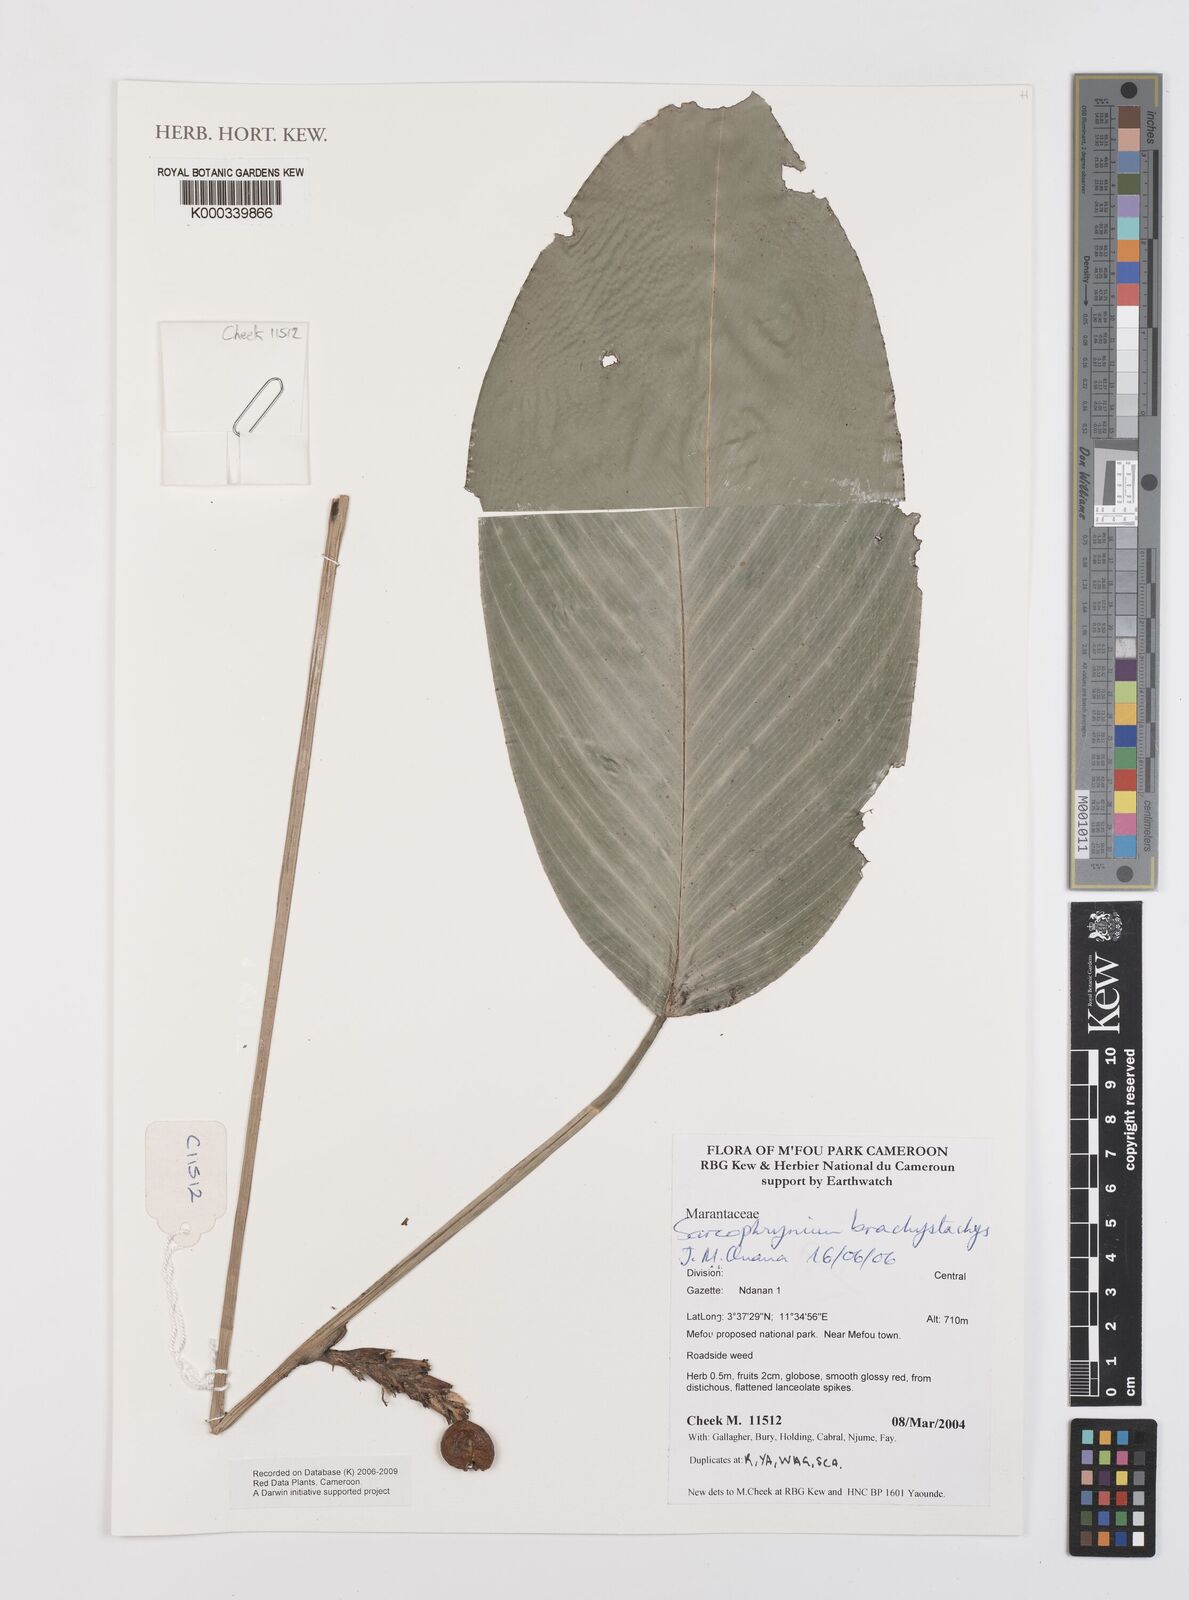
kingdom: Plantae
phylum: Tracheophyta
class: Liliopsida
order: Zingiberales
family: Marantaceae
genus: Sarcophrynium
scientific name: Sarcophrynium
